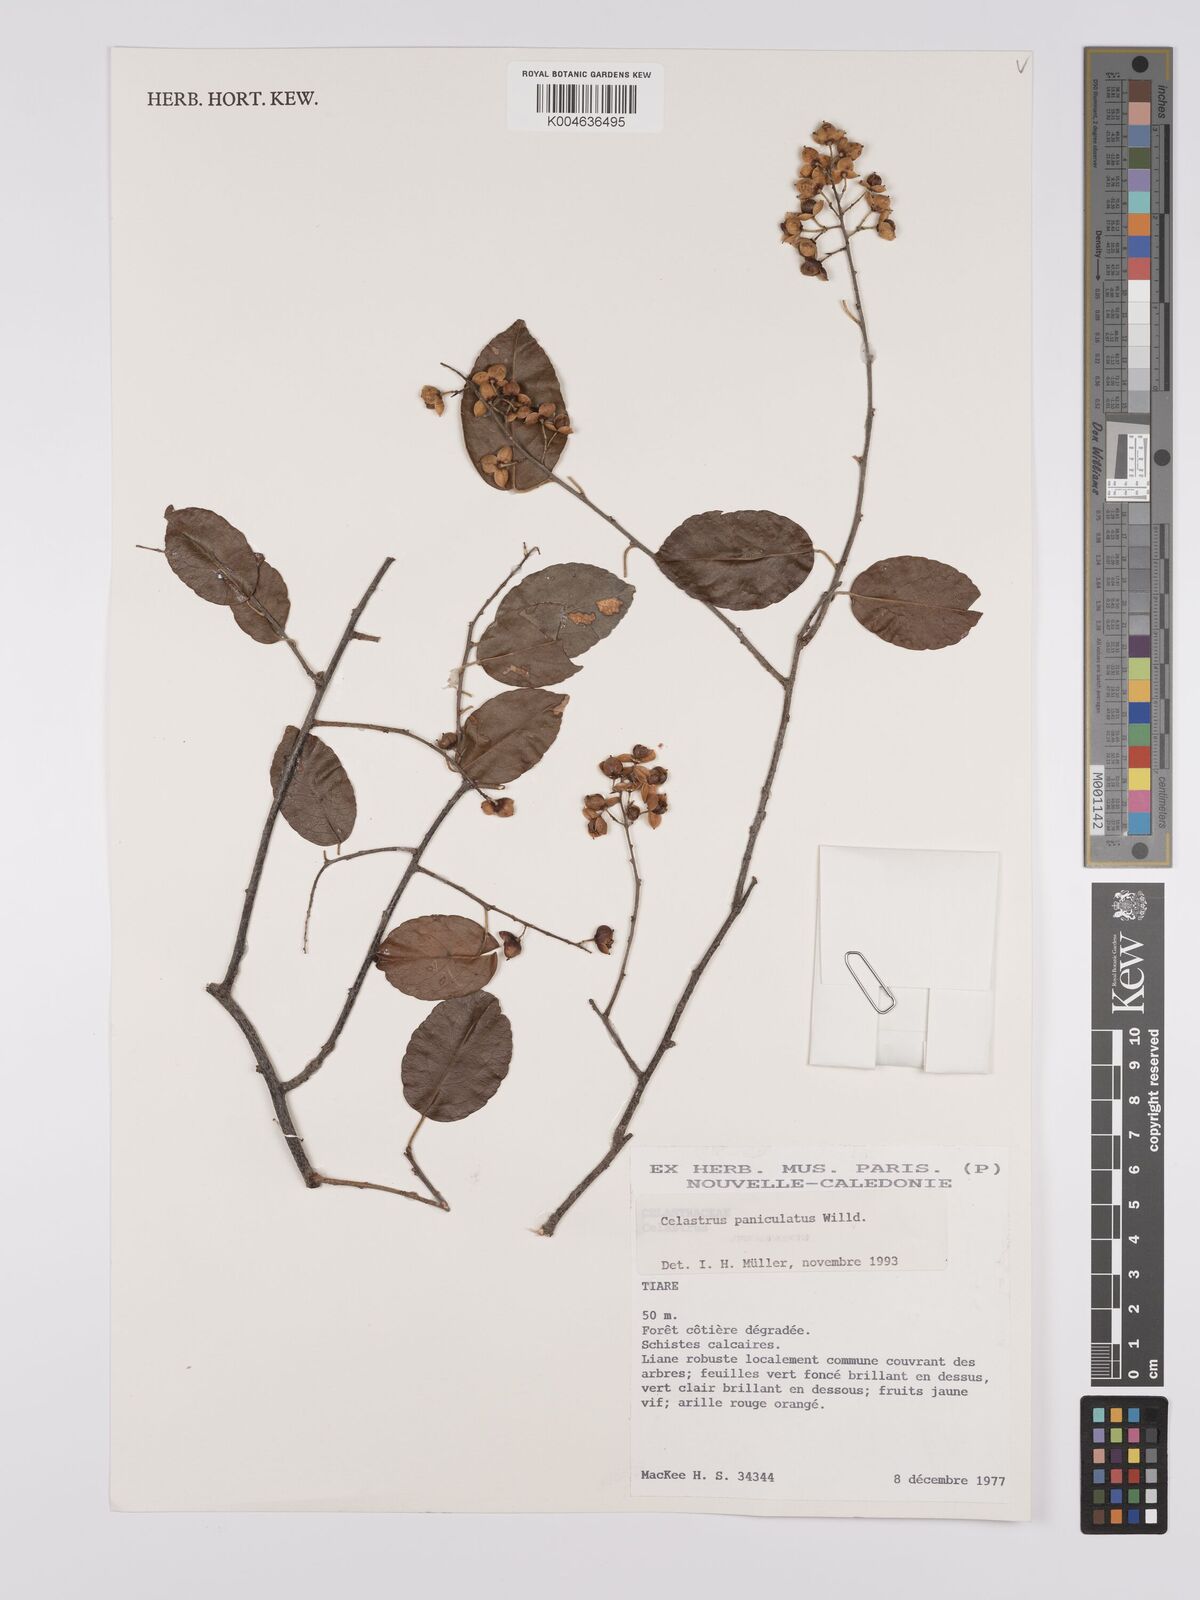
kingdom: Plantae
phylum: Tracheophyta
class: Magnoliopsida
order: Celastrales
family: Celastraceae
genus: Celastrus
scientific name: Celastrus paniculatus
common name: Oriental bittersweet; staff vine
